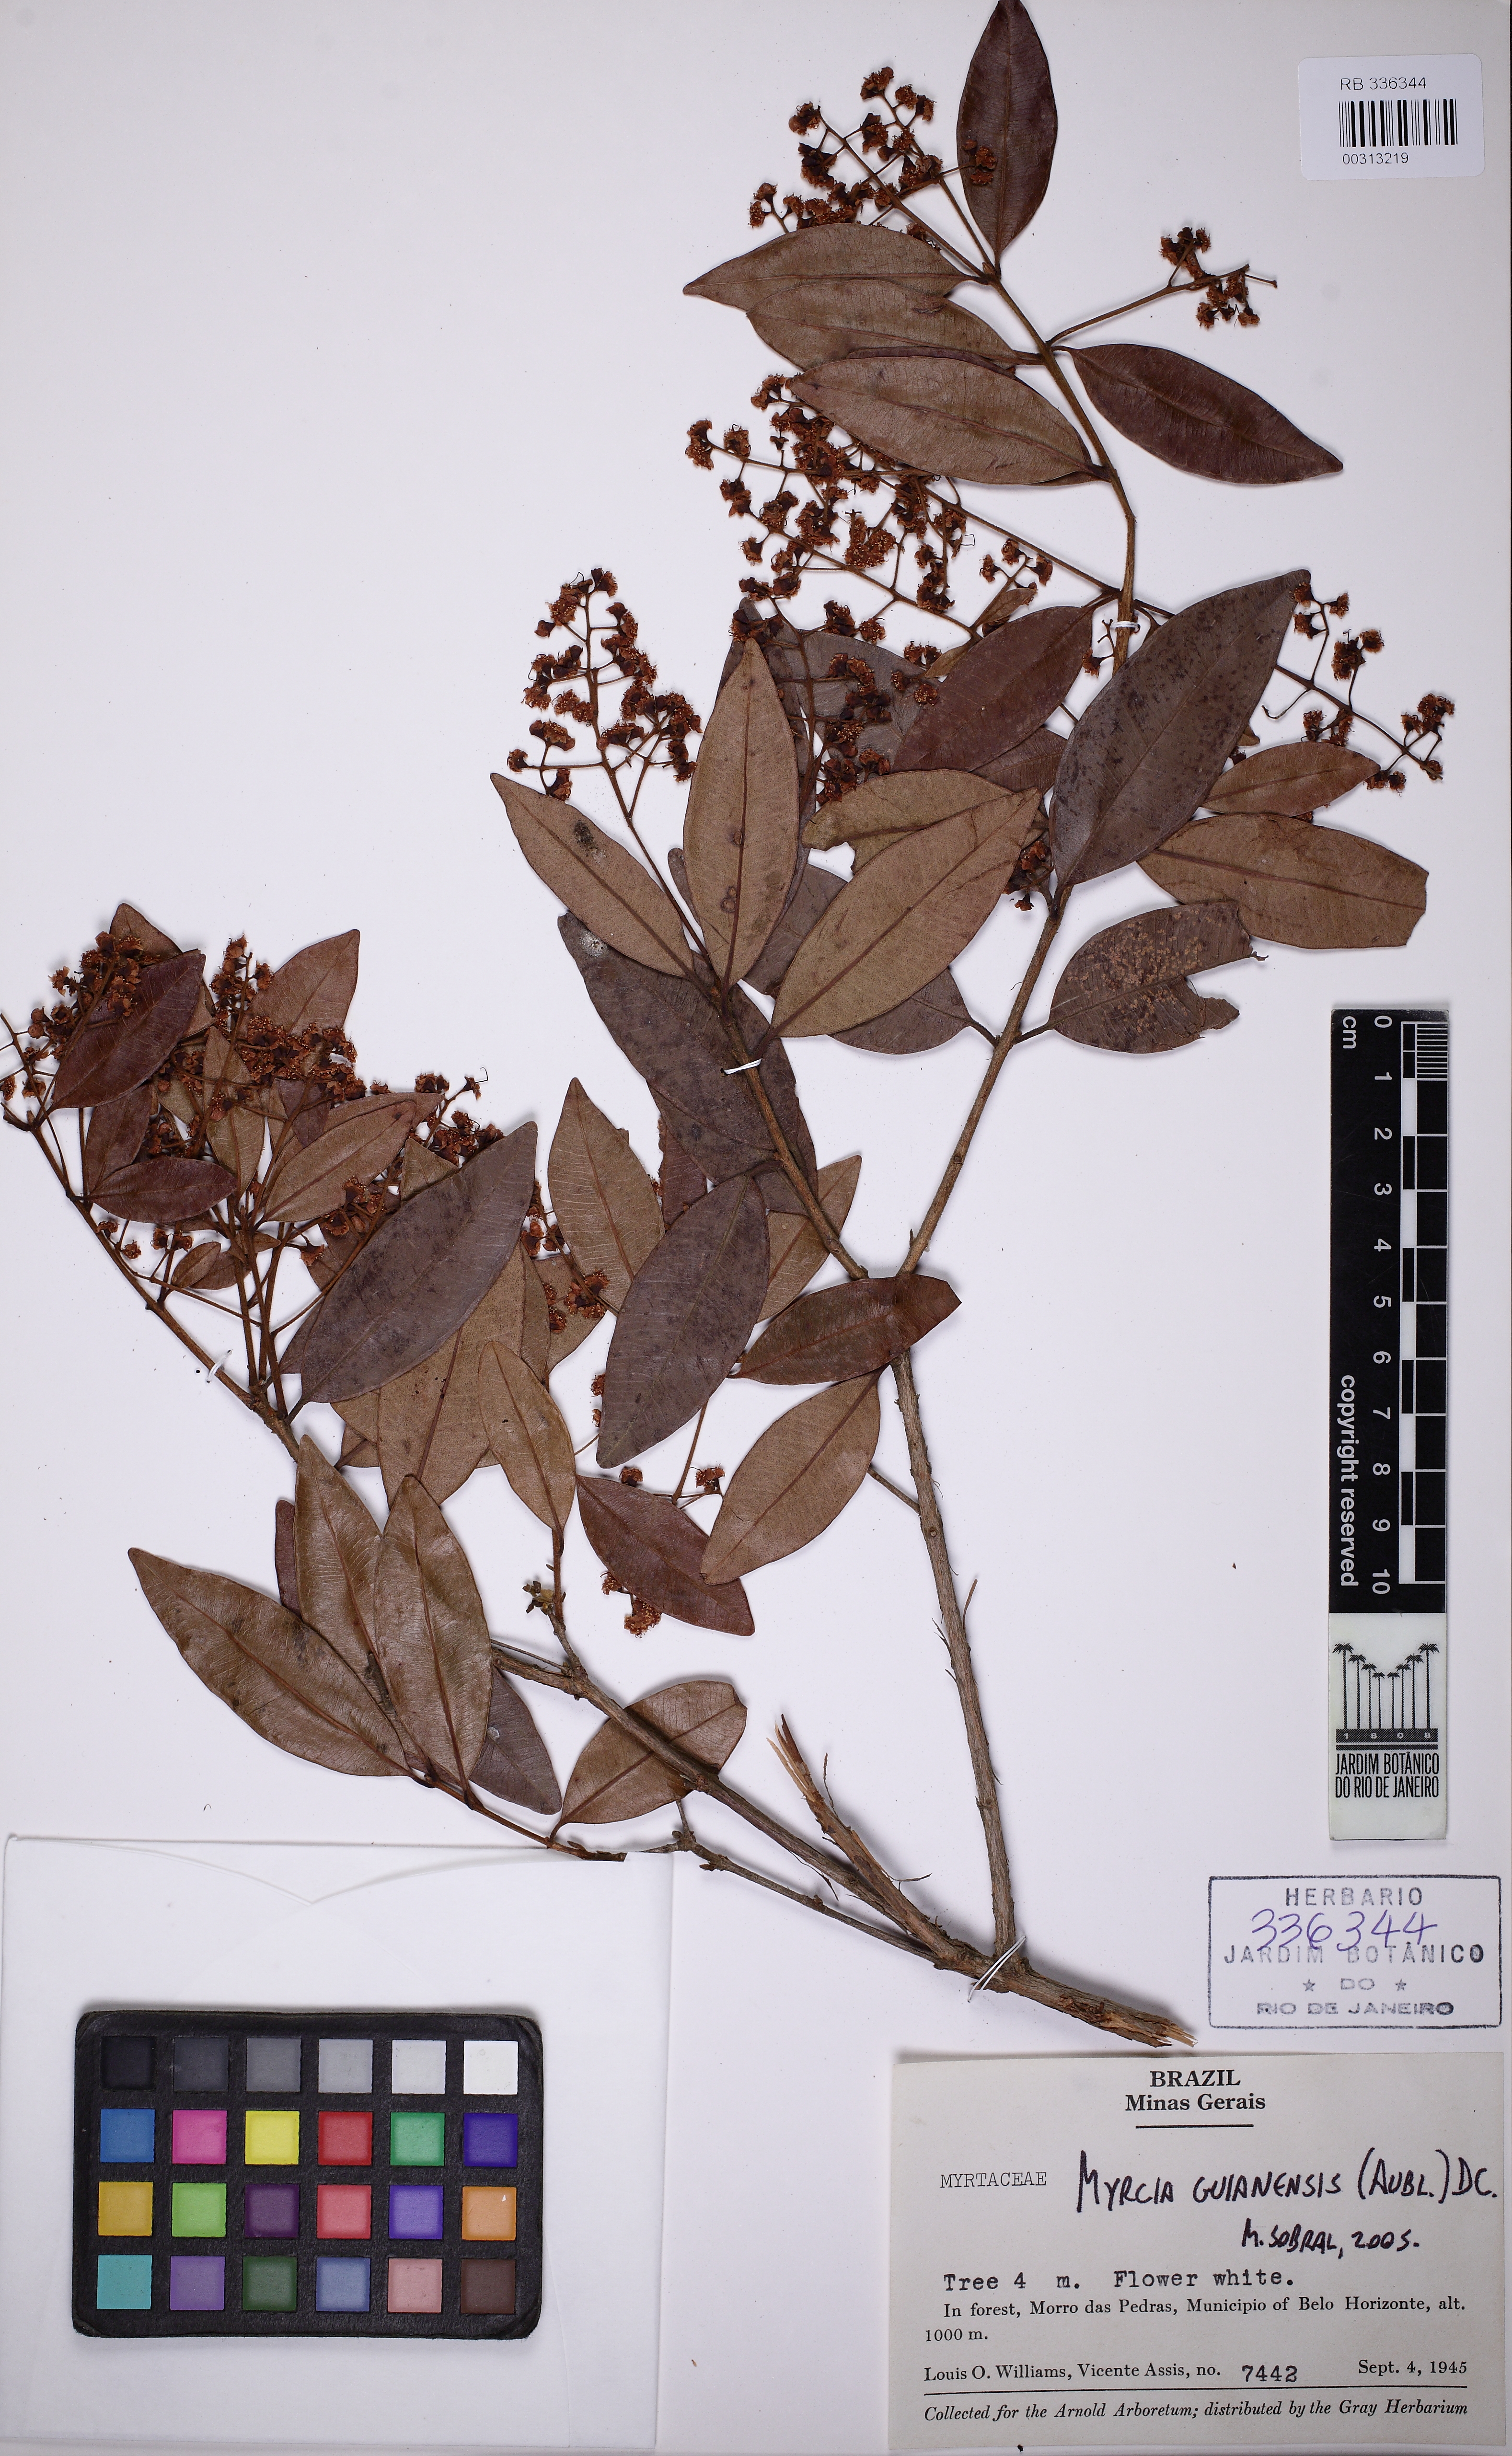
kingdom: Plantae
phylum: Tracheophyta
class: Magnoliopsida
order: Myrtales
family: Myrtaceae
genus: Myrcia
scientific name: Myrcia guianensis
